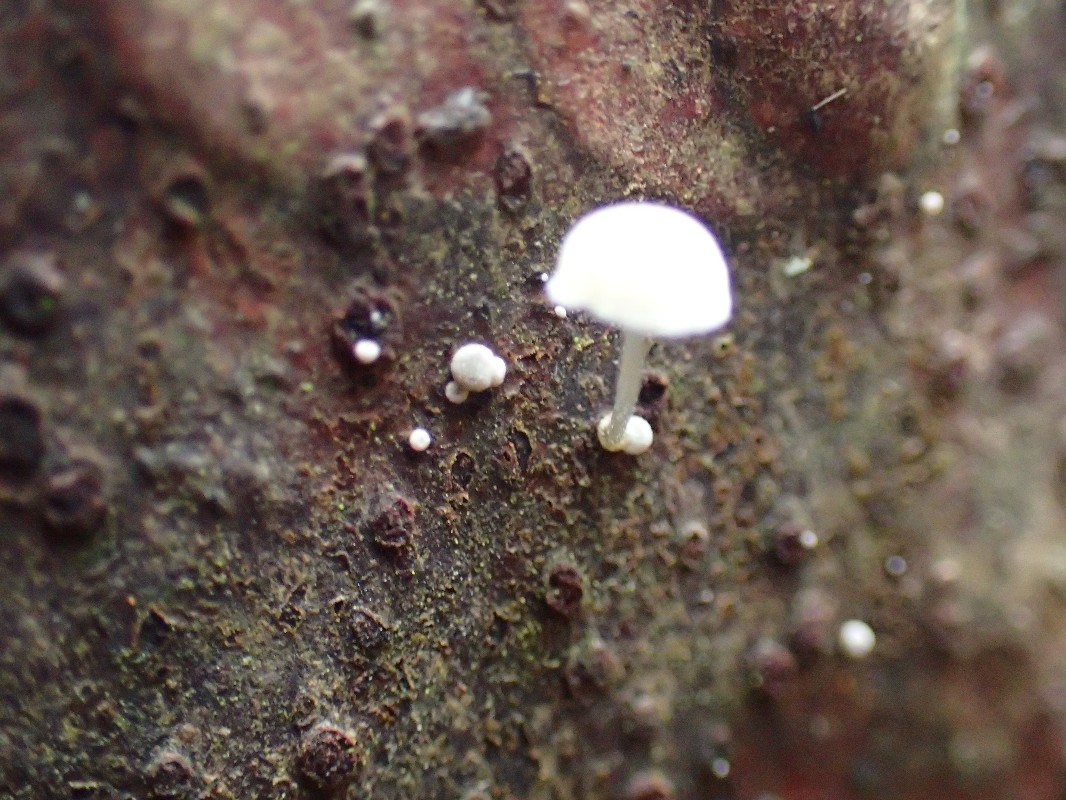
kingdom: Fungi
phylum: Basidiomycota
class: Agaricomycetes
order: Agaricales
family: Mycenaceae
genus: Mycena
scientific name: Mycena
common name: huesvamp
